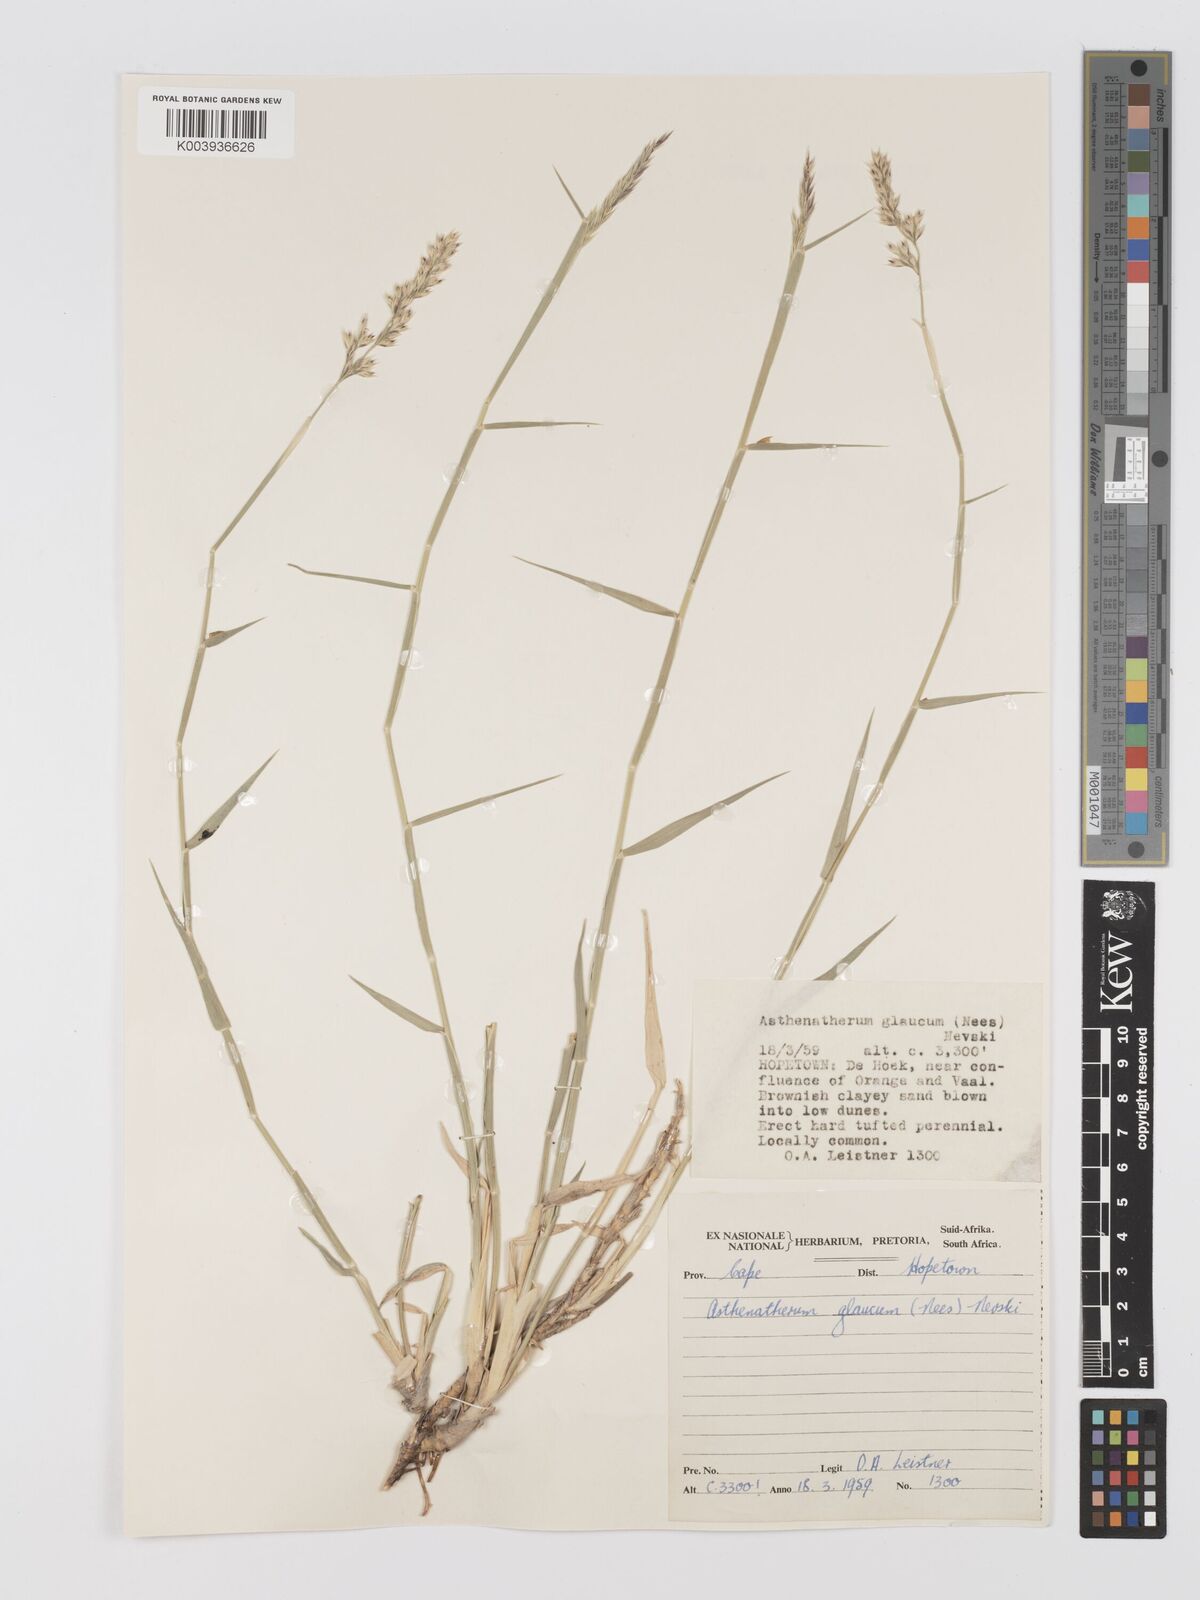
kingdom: Plantae
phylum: Tracheophyta
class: Liliopsida
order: Poales
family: Poaceae
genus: Centropodia
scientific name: Centropodia glauca
